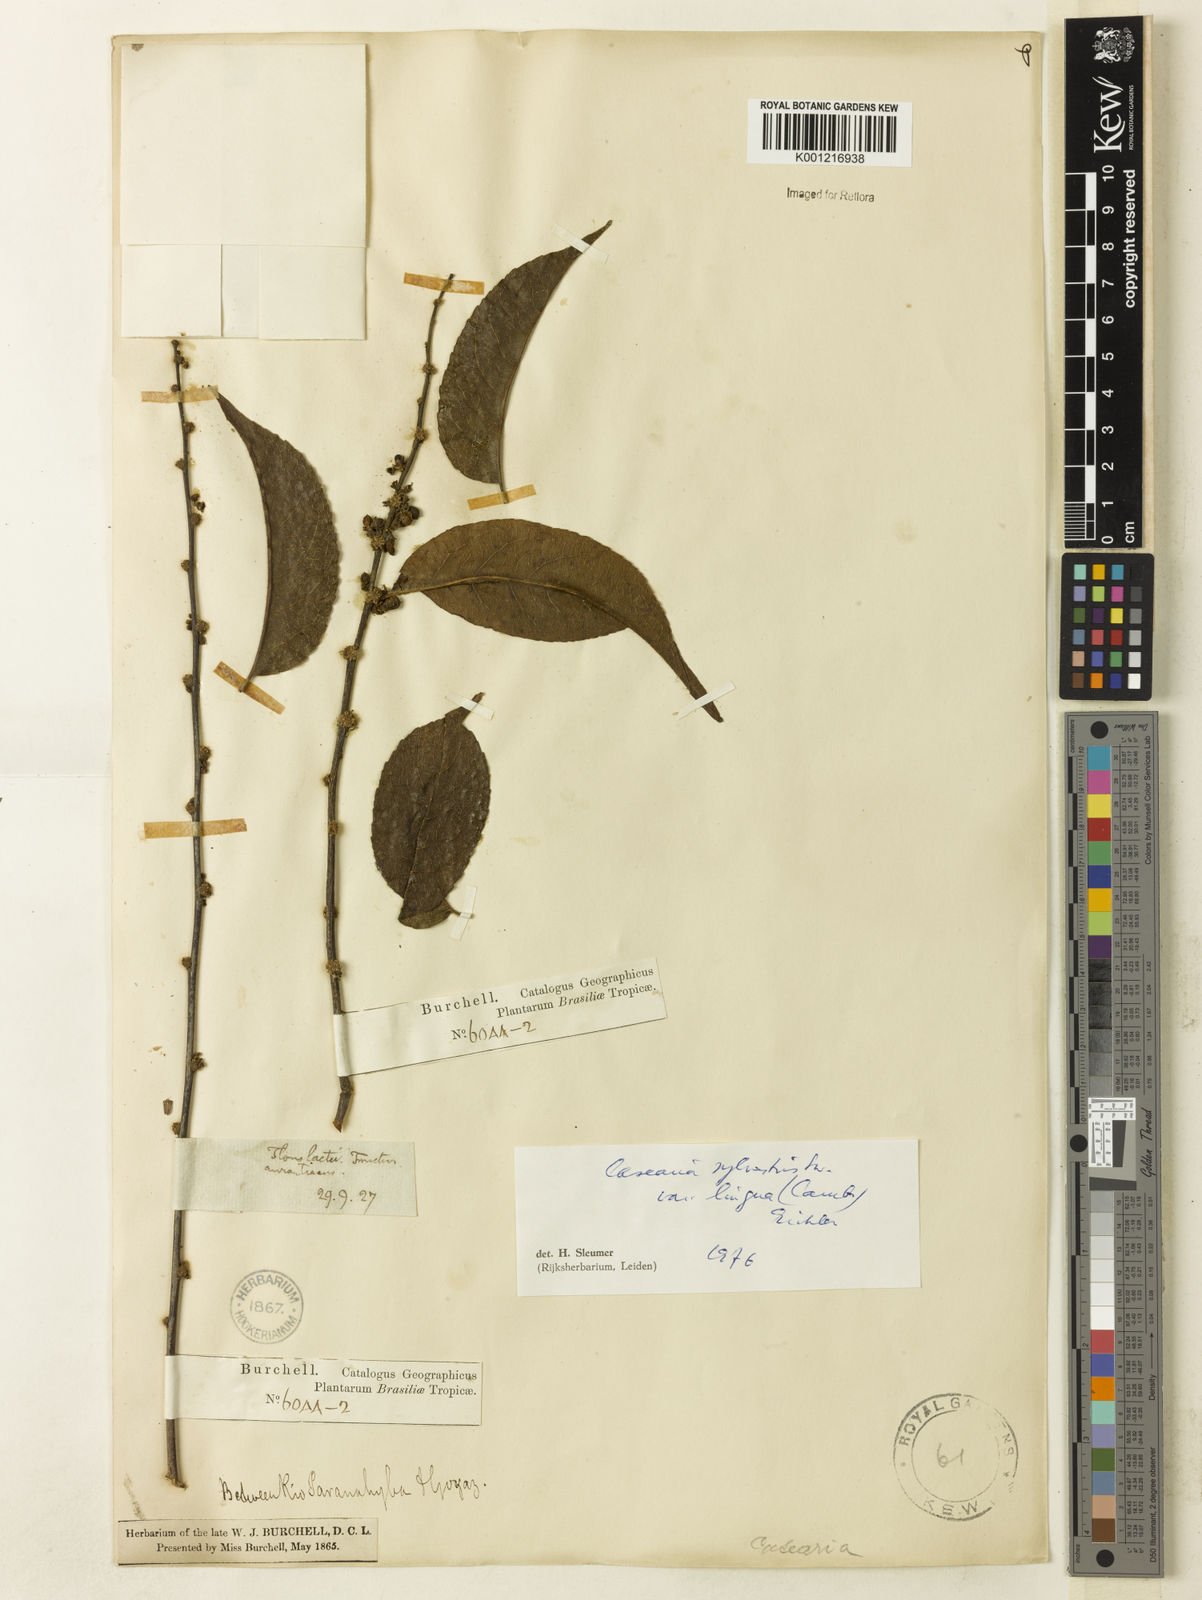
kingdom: Plantae
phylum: Tracheophyta
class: Magnoliopsida
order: Malpighiales
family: Salicaceae
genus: Casearia
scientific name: Casearia sylvestris
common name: Wild sage
